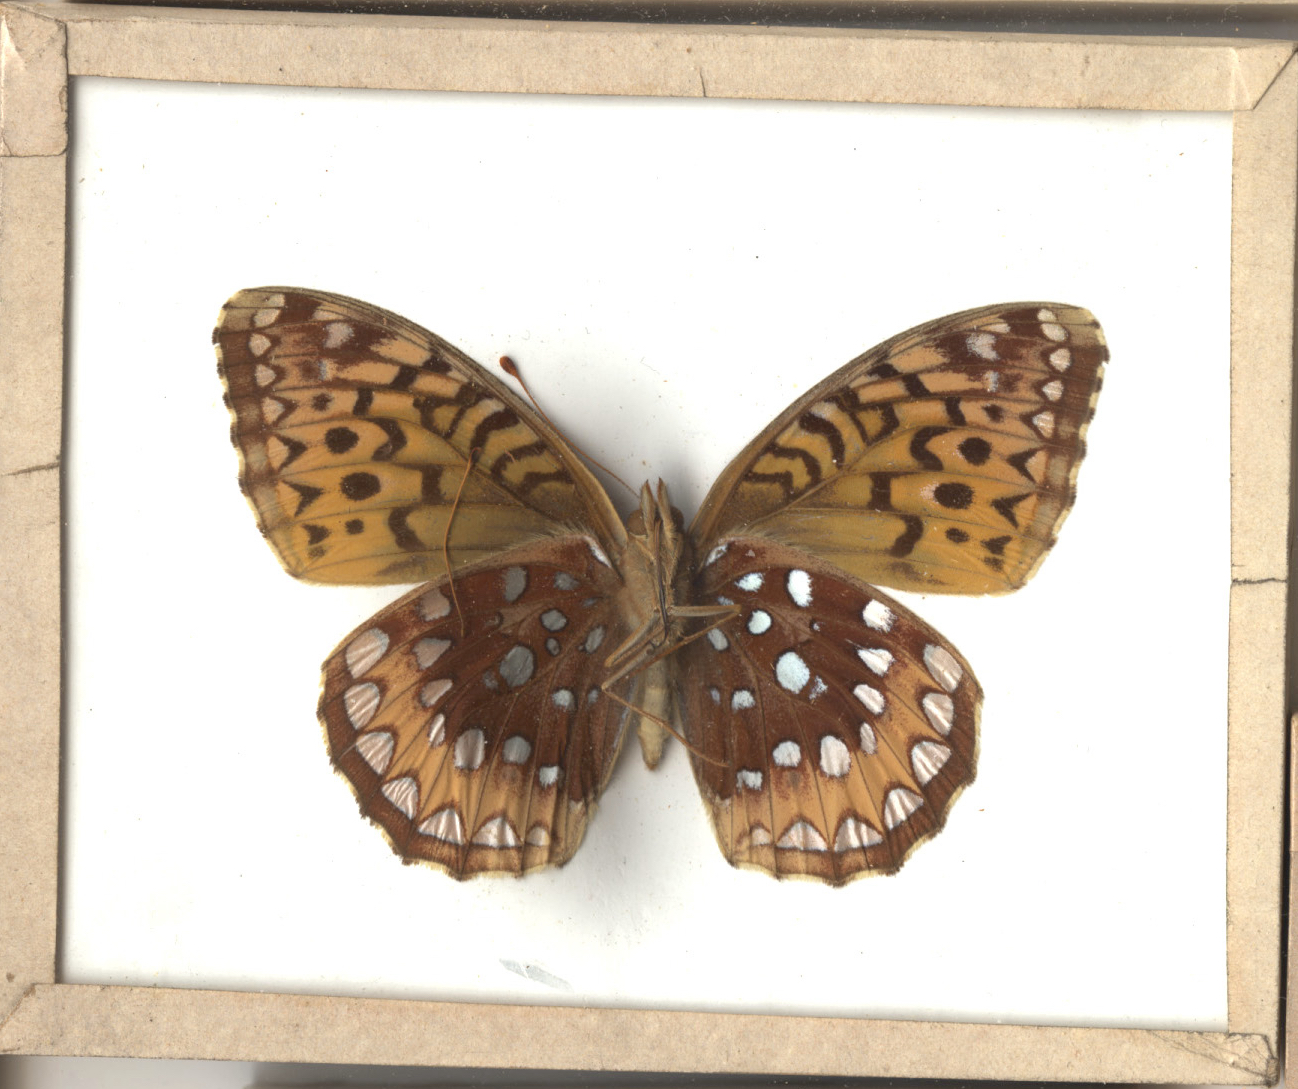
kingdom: Animalia
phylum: Arthropoda
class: Insecta
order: Lepidoptera
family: Nymphalidae
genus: Speyeria
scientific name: Speyeria cybele
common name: Great Spangled Fritillary
